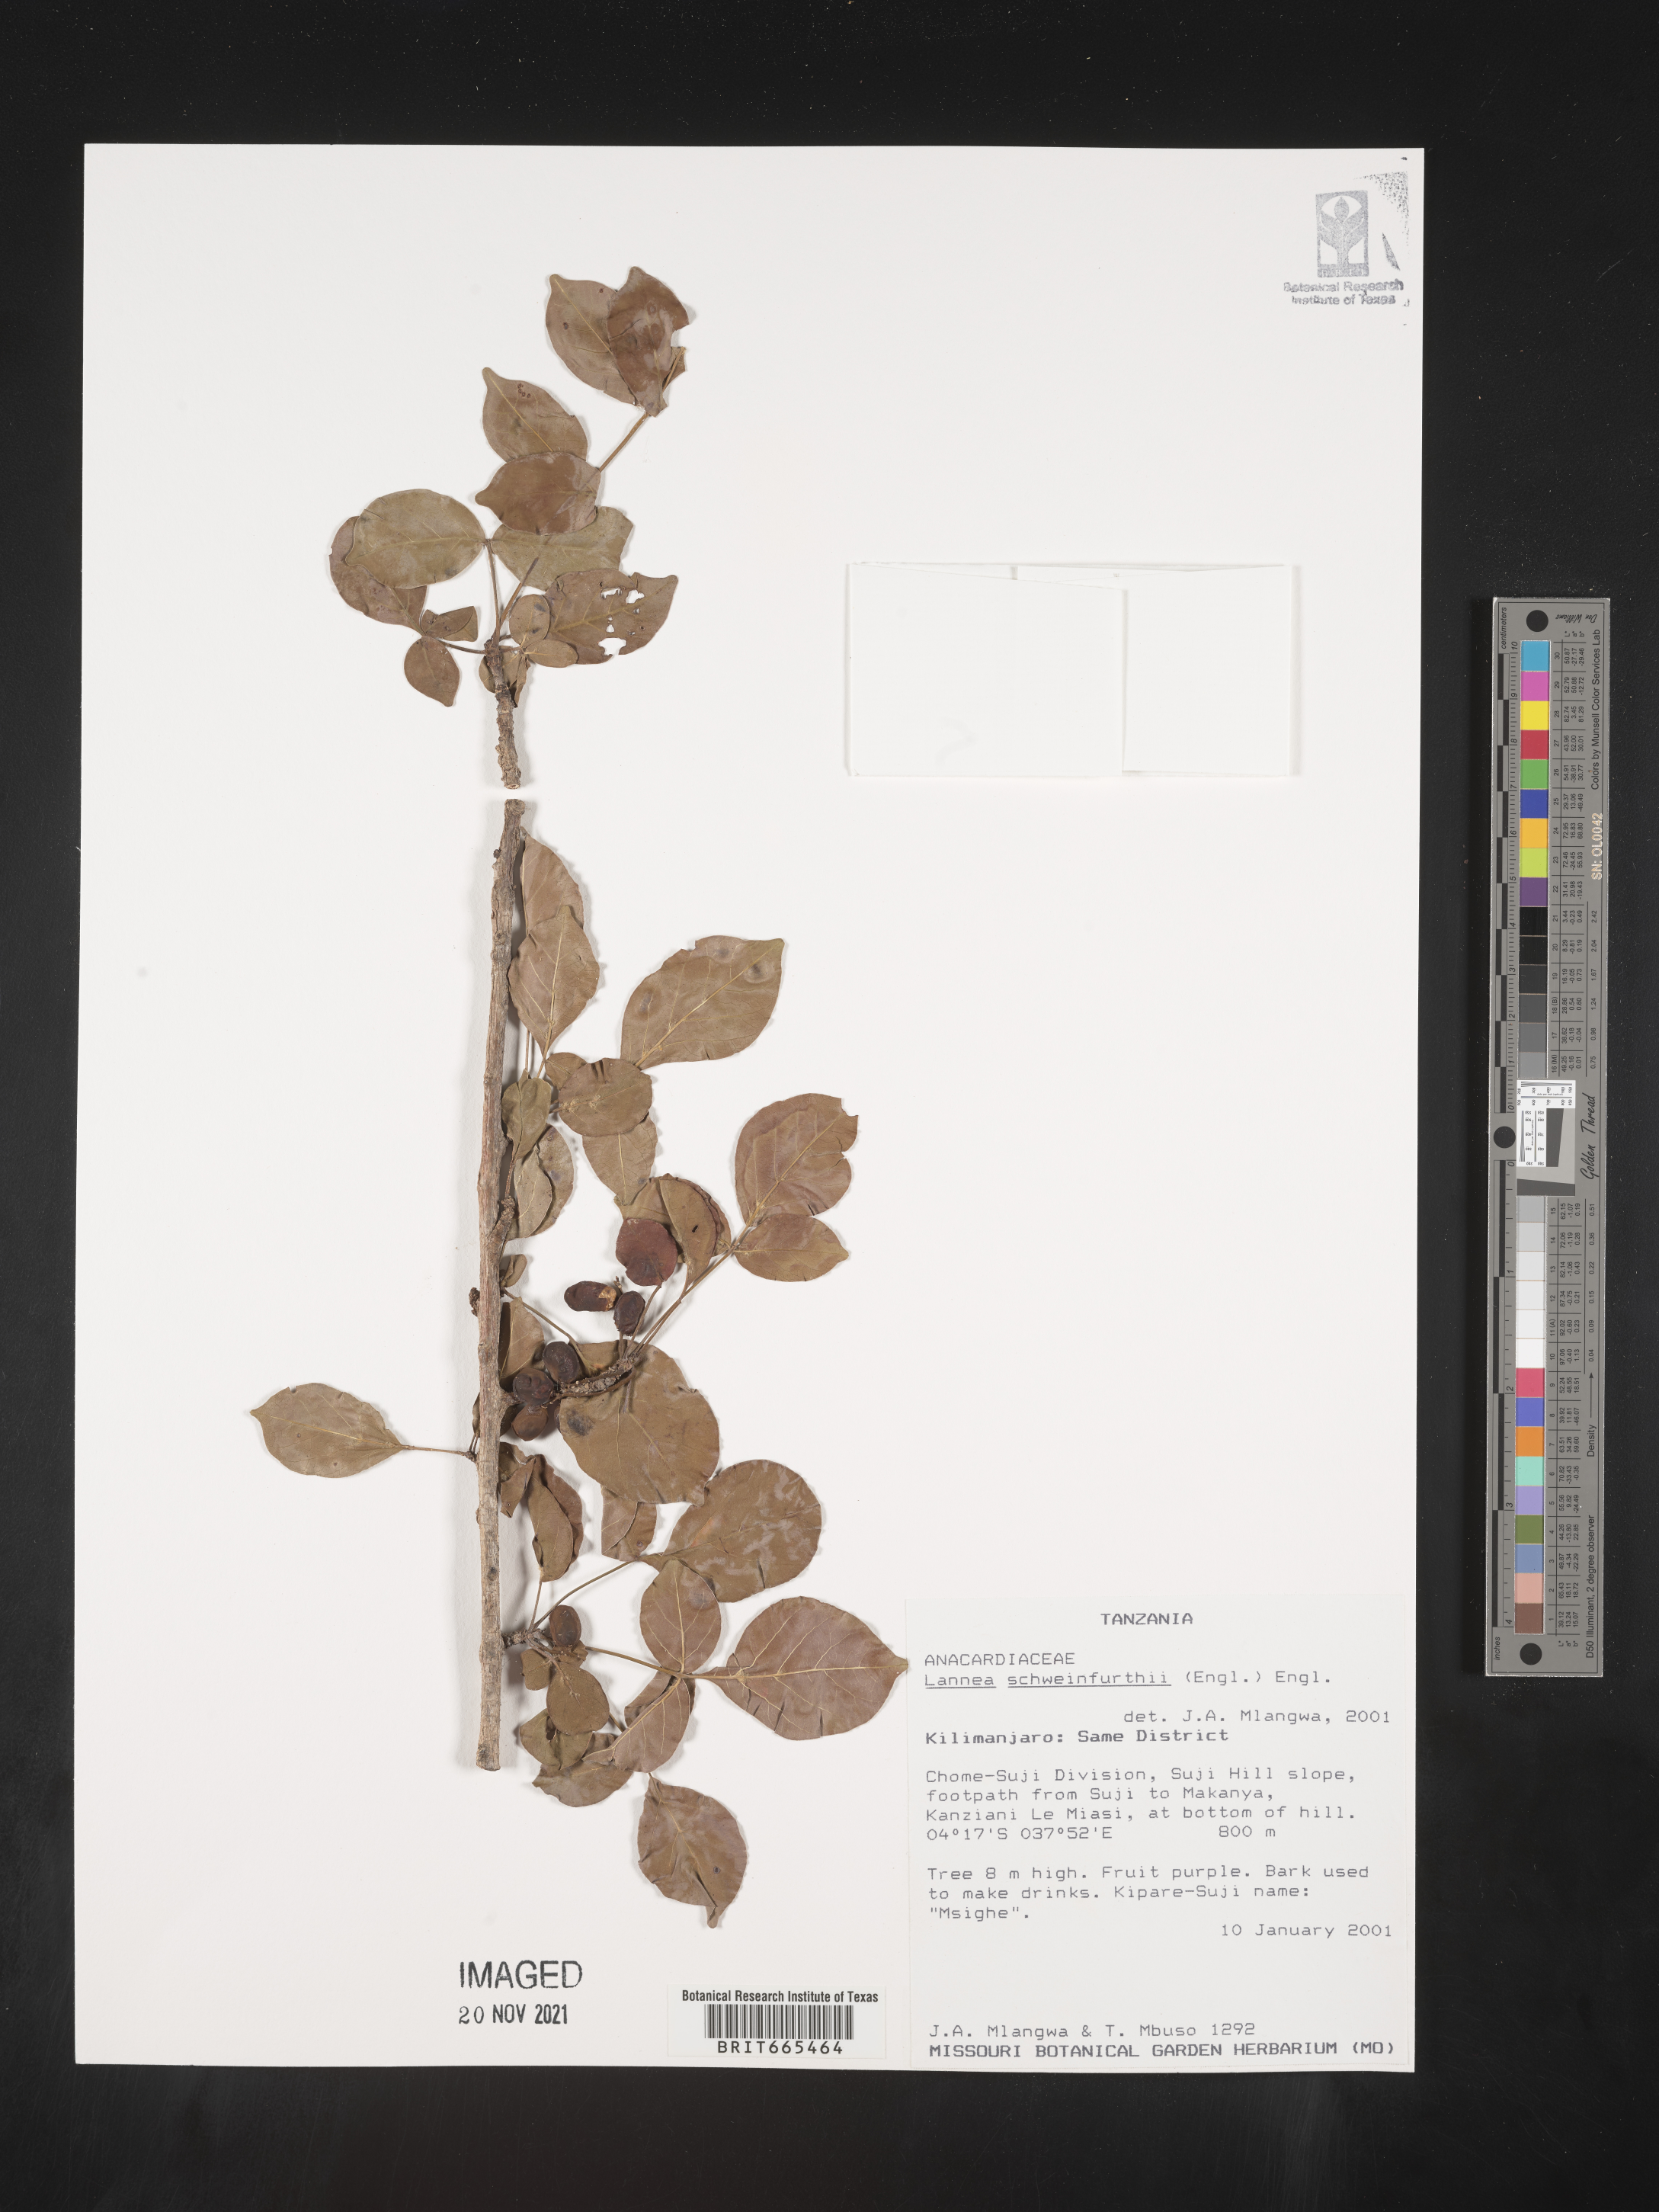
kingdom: Plantae
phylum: Tracheophyta
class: Magnoliopsida
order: Sapindales
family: Anacardiaceae
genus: Lannea
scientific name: Lannea
